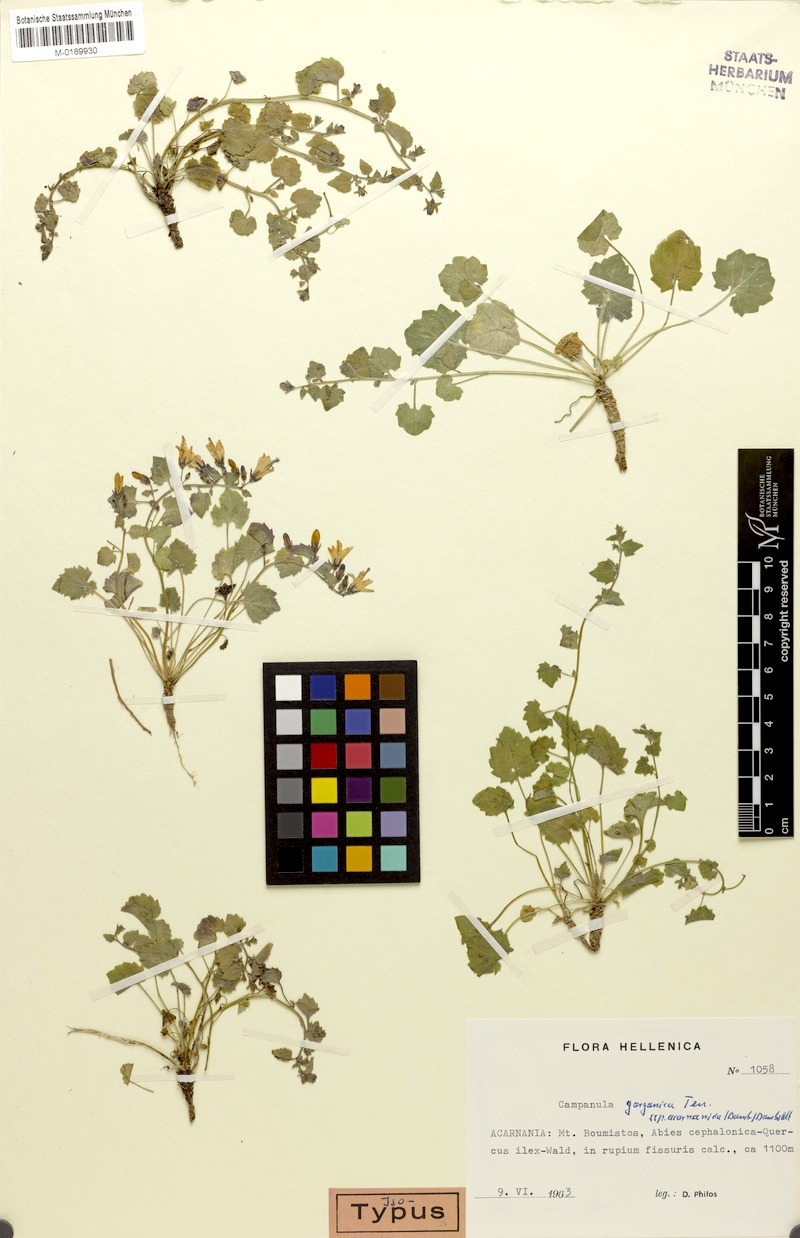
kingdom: Plantae
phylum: Tracheophyta
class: Magnoliopsida
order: Asterales
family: Campanulaceae
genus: Campanula
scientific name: Campanula garganica
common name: Adriatic bellflower
